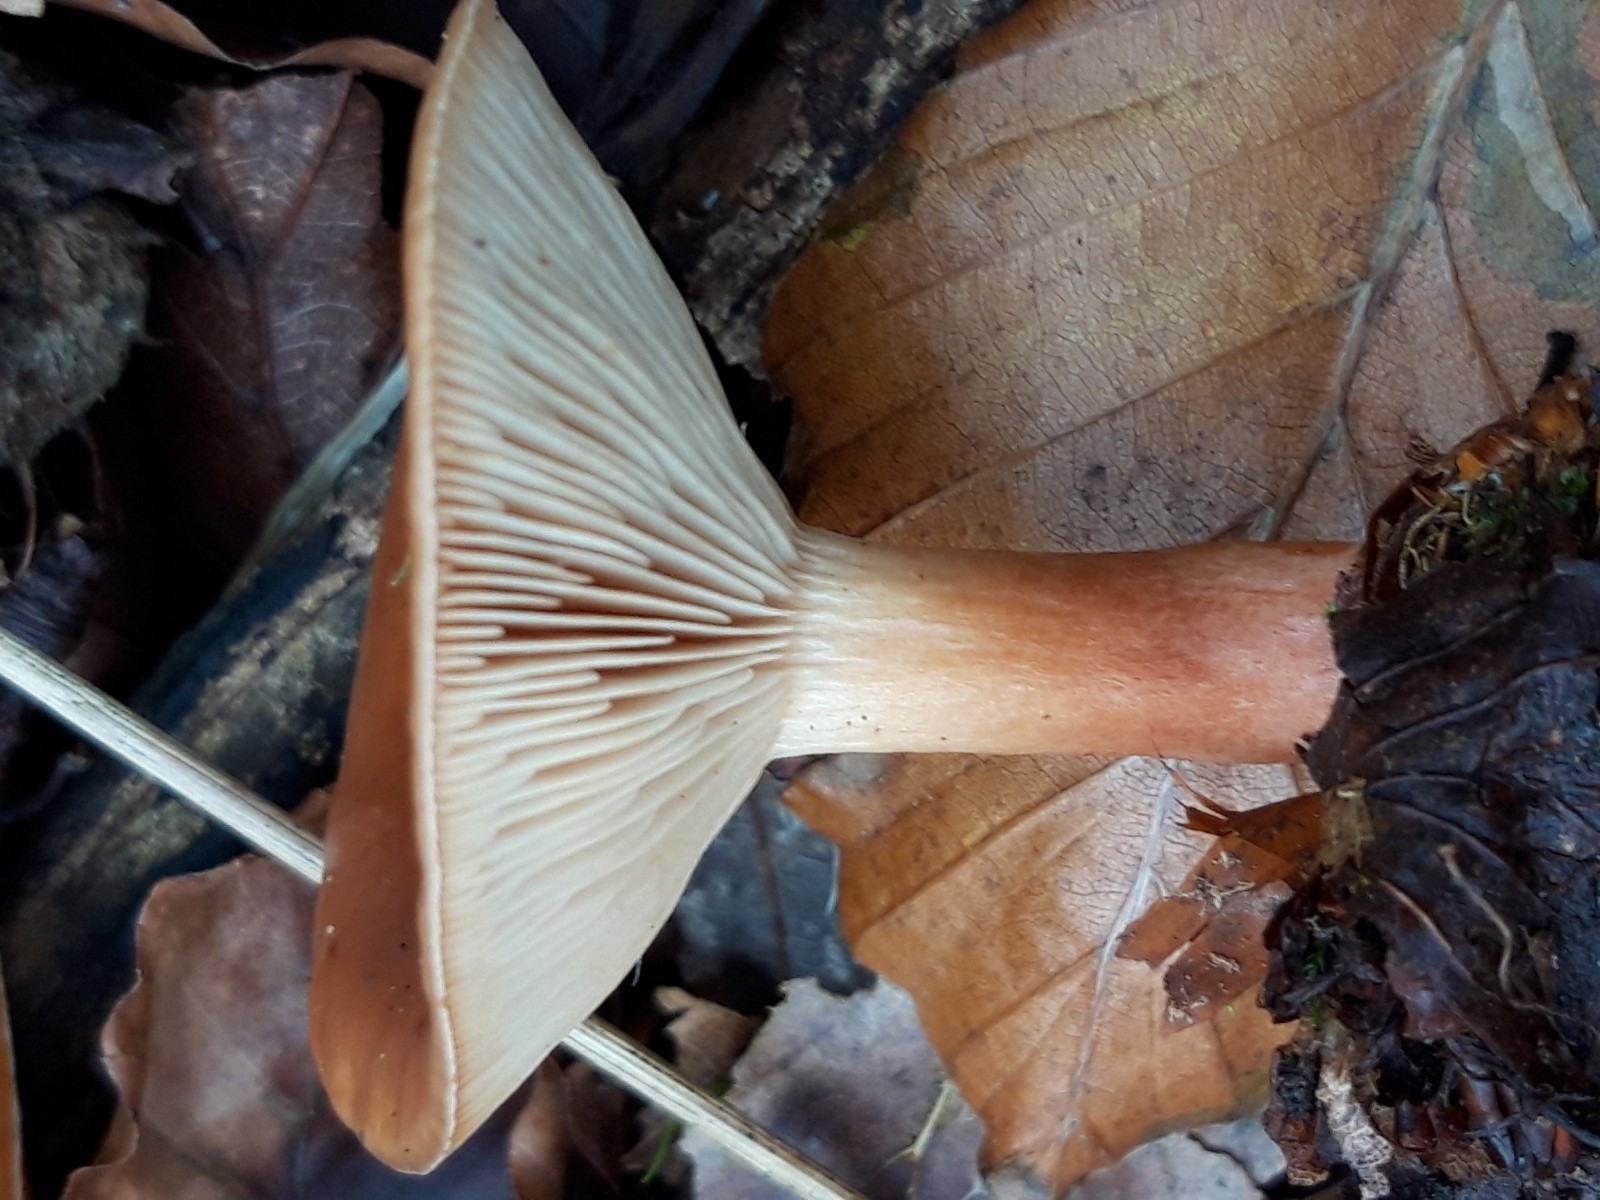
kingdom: Fungi
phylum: Basidiomycota
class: Agaricomycetes
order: Russulales
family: Russulaceae
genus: Lactarius
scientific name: Lactarius tabidus
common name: rynket mælkehat
